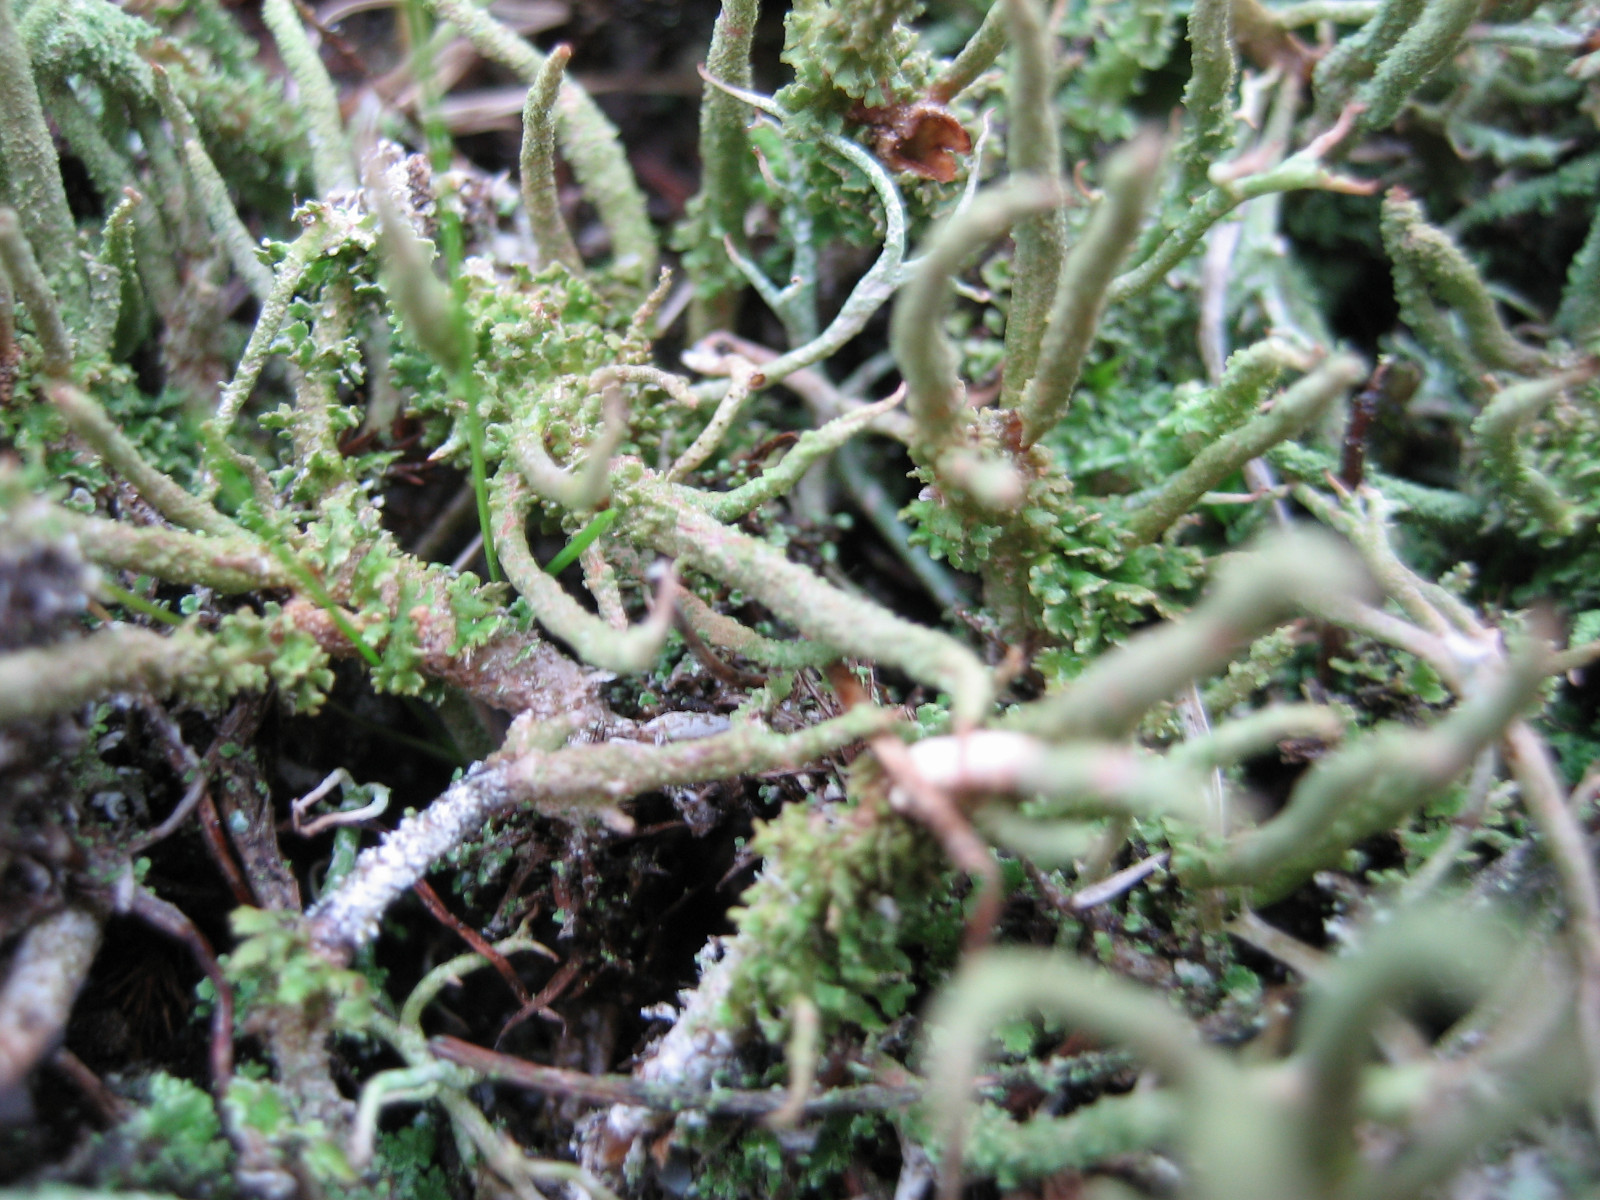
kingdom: Fungi
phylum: Ascomycota
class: Lecanoromycetes
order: Lecanorales
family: Cladoniaceae
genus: Cladonia
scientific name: Cladonia glauca
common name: grågrøn bægerlav
